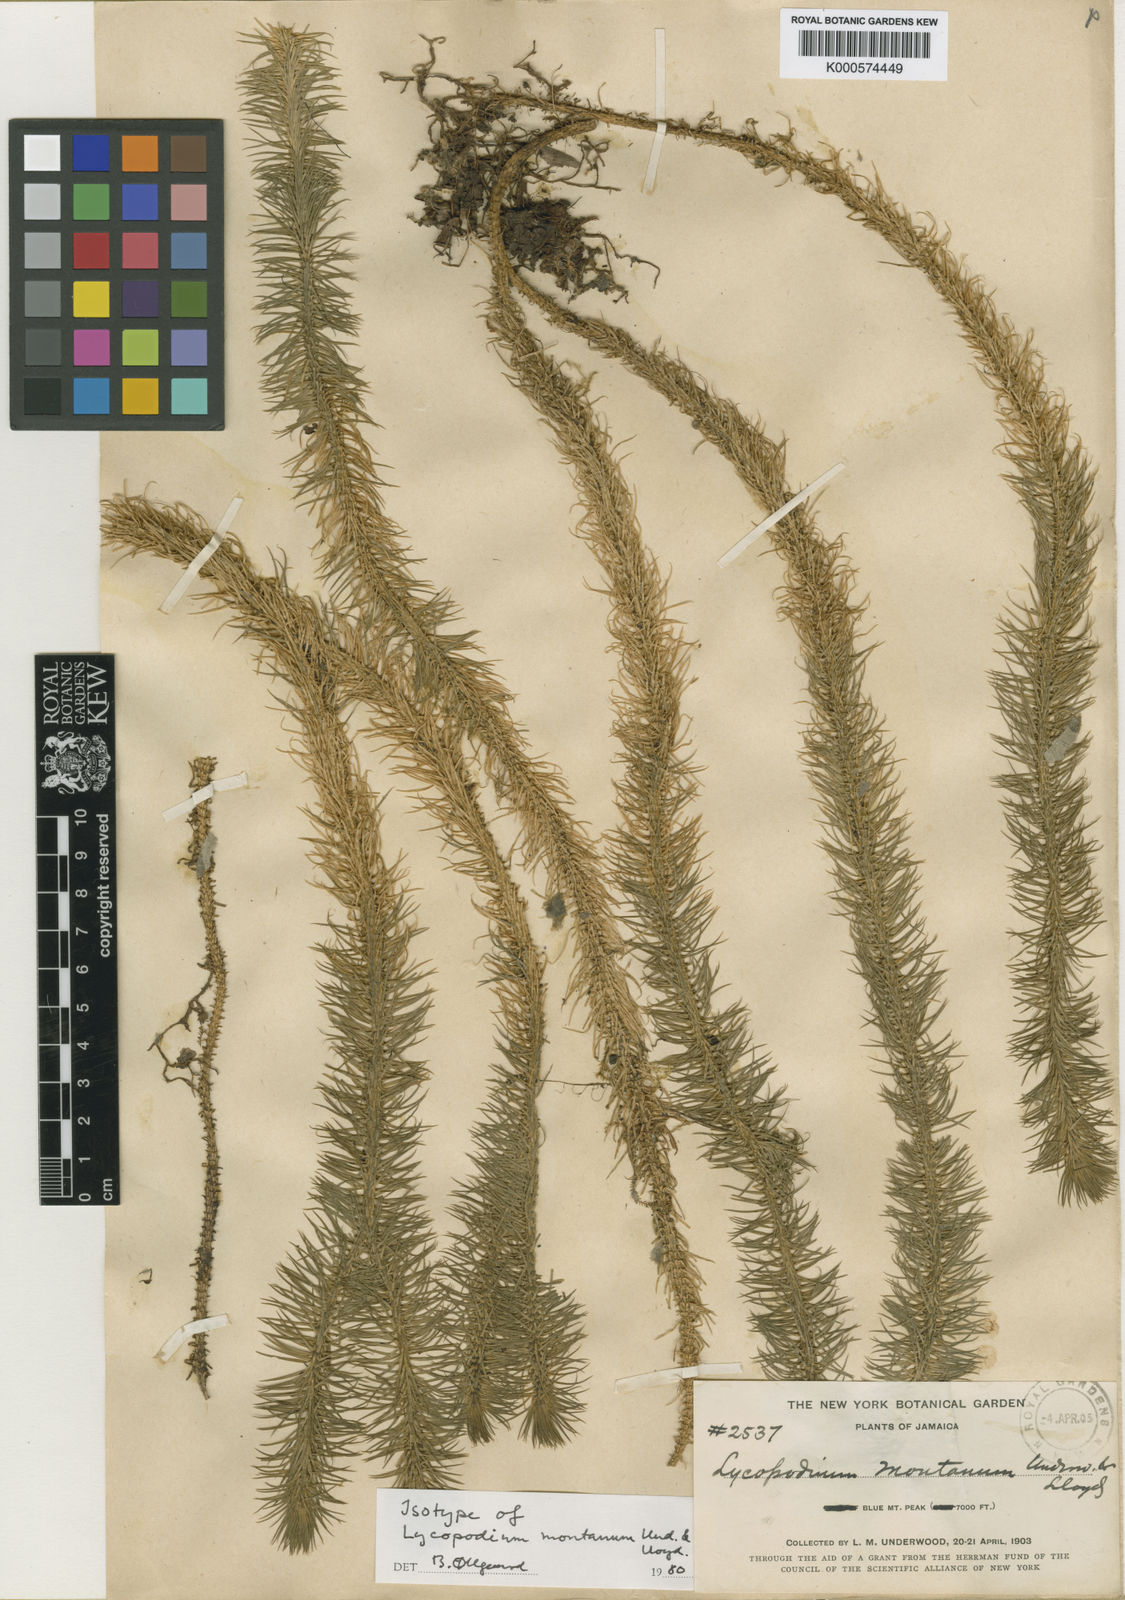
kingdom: Plantae
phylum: Tracheophyta
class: Lycopodiopsida
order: Lycopodiales
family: Lycopodiaceae
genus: Phlegmariurus
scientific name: Phlegmariurus hippurideus
